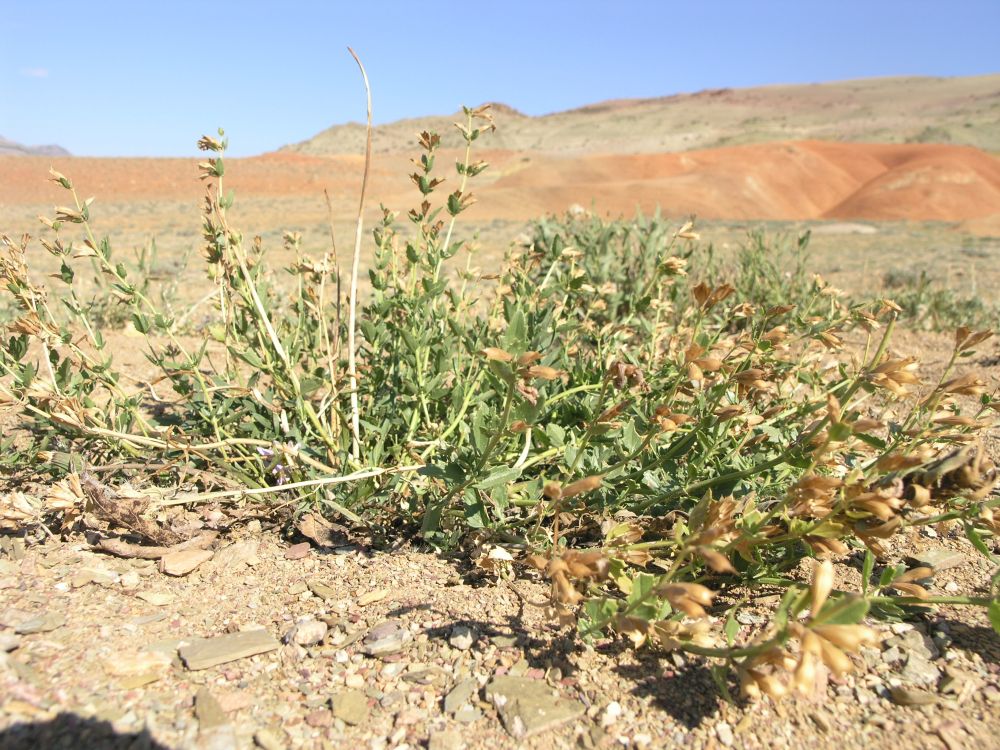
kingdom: Plantae
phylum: Tracheophyta
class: Magnoliopsida
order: Lamiales
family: Lamiaceae
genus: Dracocephalum
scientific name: Dracocephalum peregrinum
